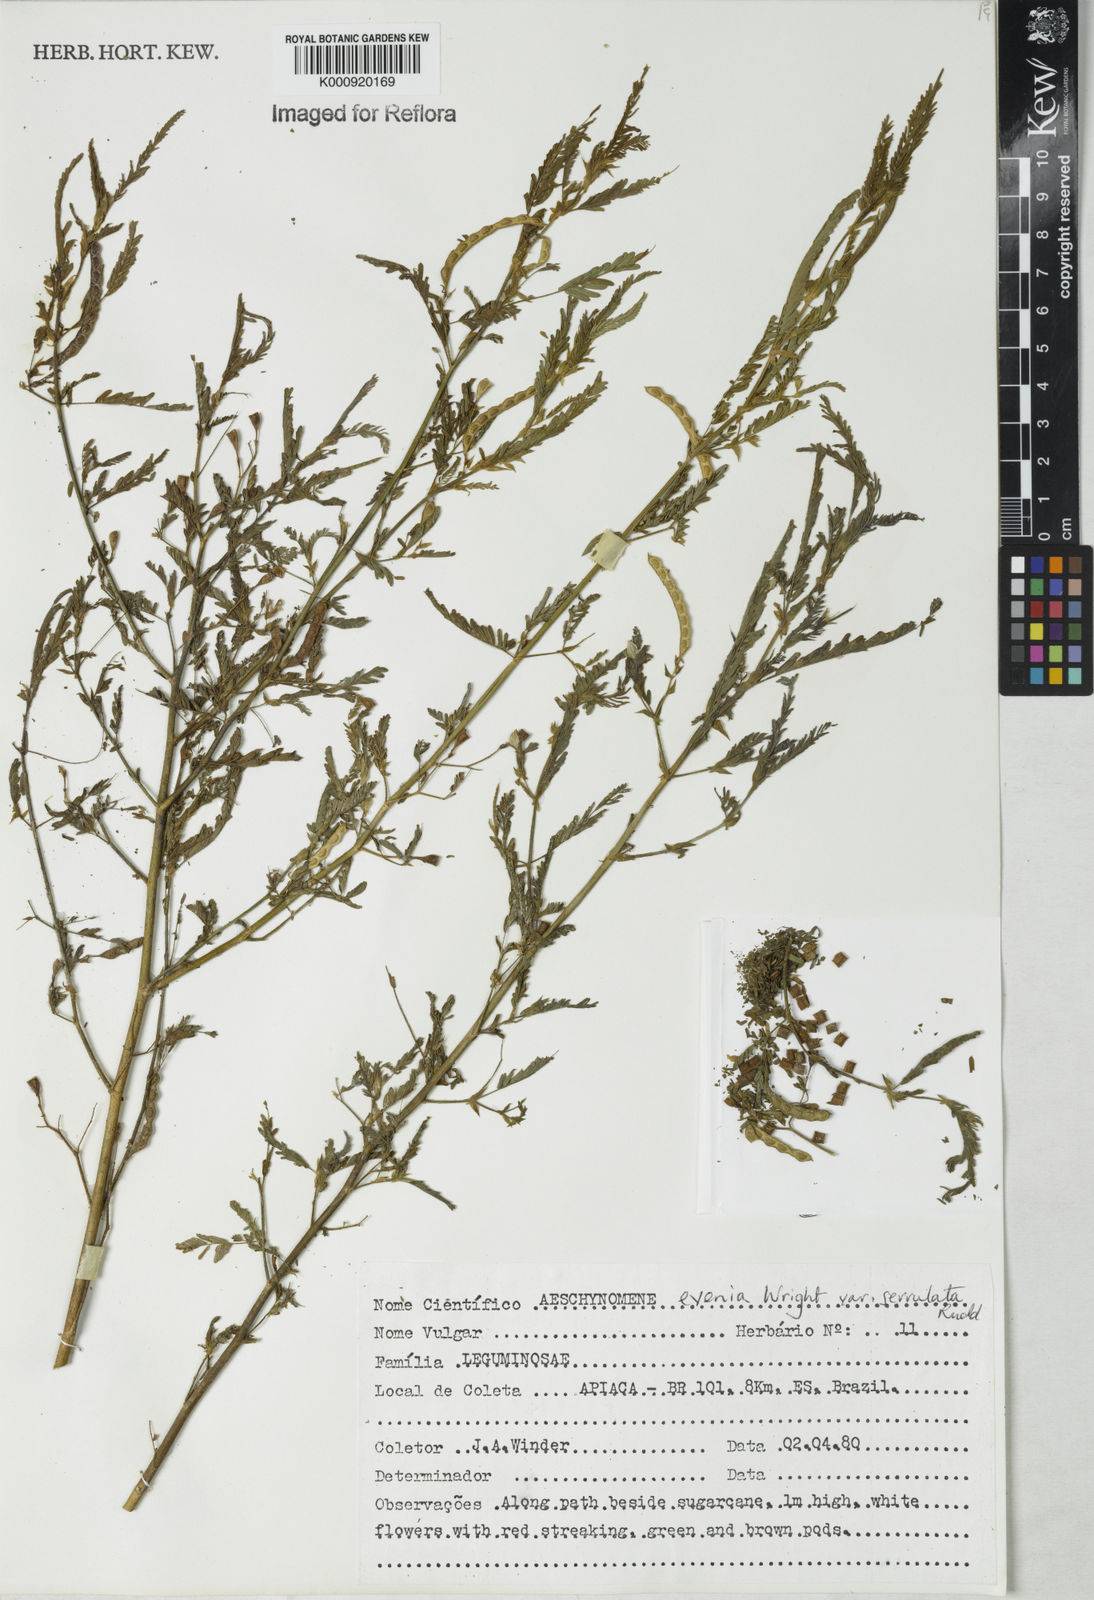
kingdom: Plantae
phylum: Tracheophyta
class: Magnoliopsida
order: Fabales
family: Fabaceae
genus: Aeschynomene
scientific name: Aeschynomene evenia
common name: Shrubby jointvetch
